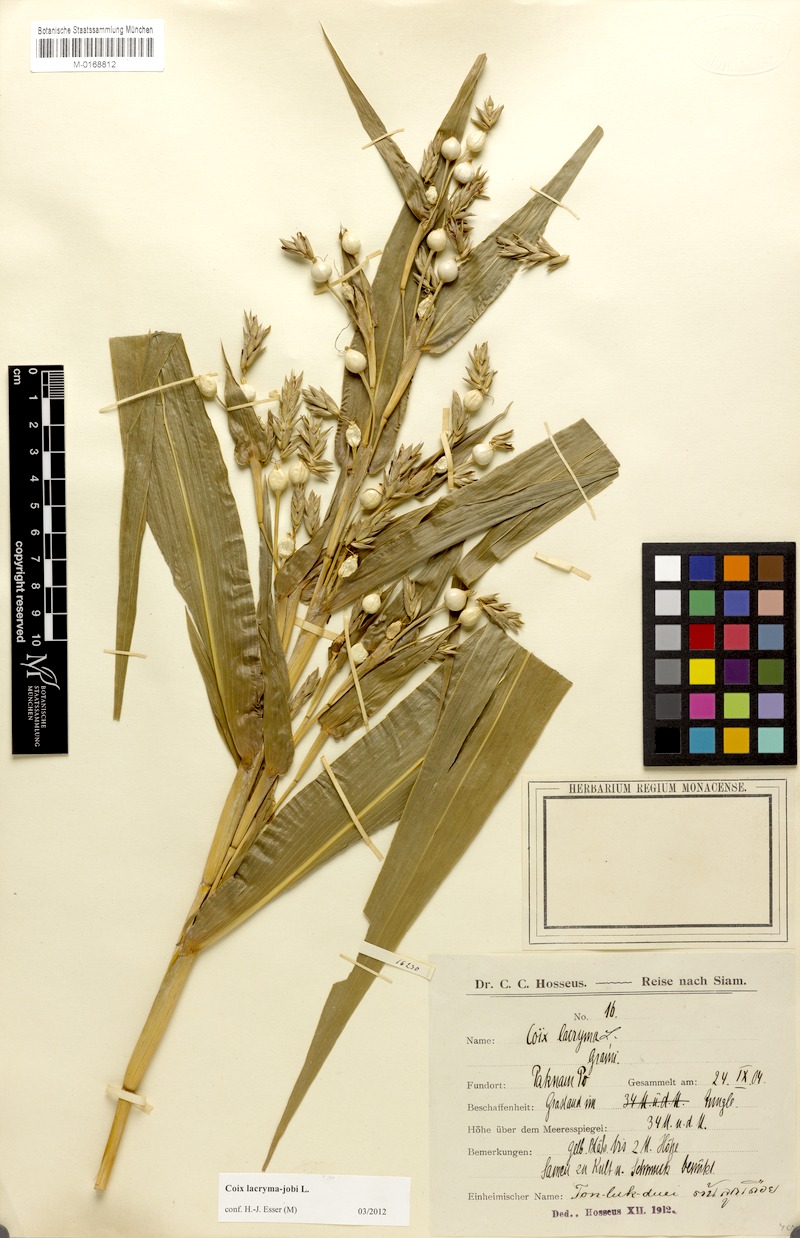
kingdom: Plantae
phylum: Tracheophyta
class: Liliopsida
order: Poales
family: Poaceae
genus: Coix
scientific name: Coix lacryma-jobi
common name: Job's tears
